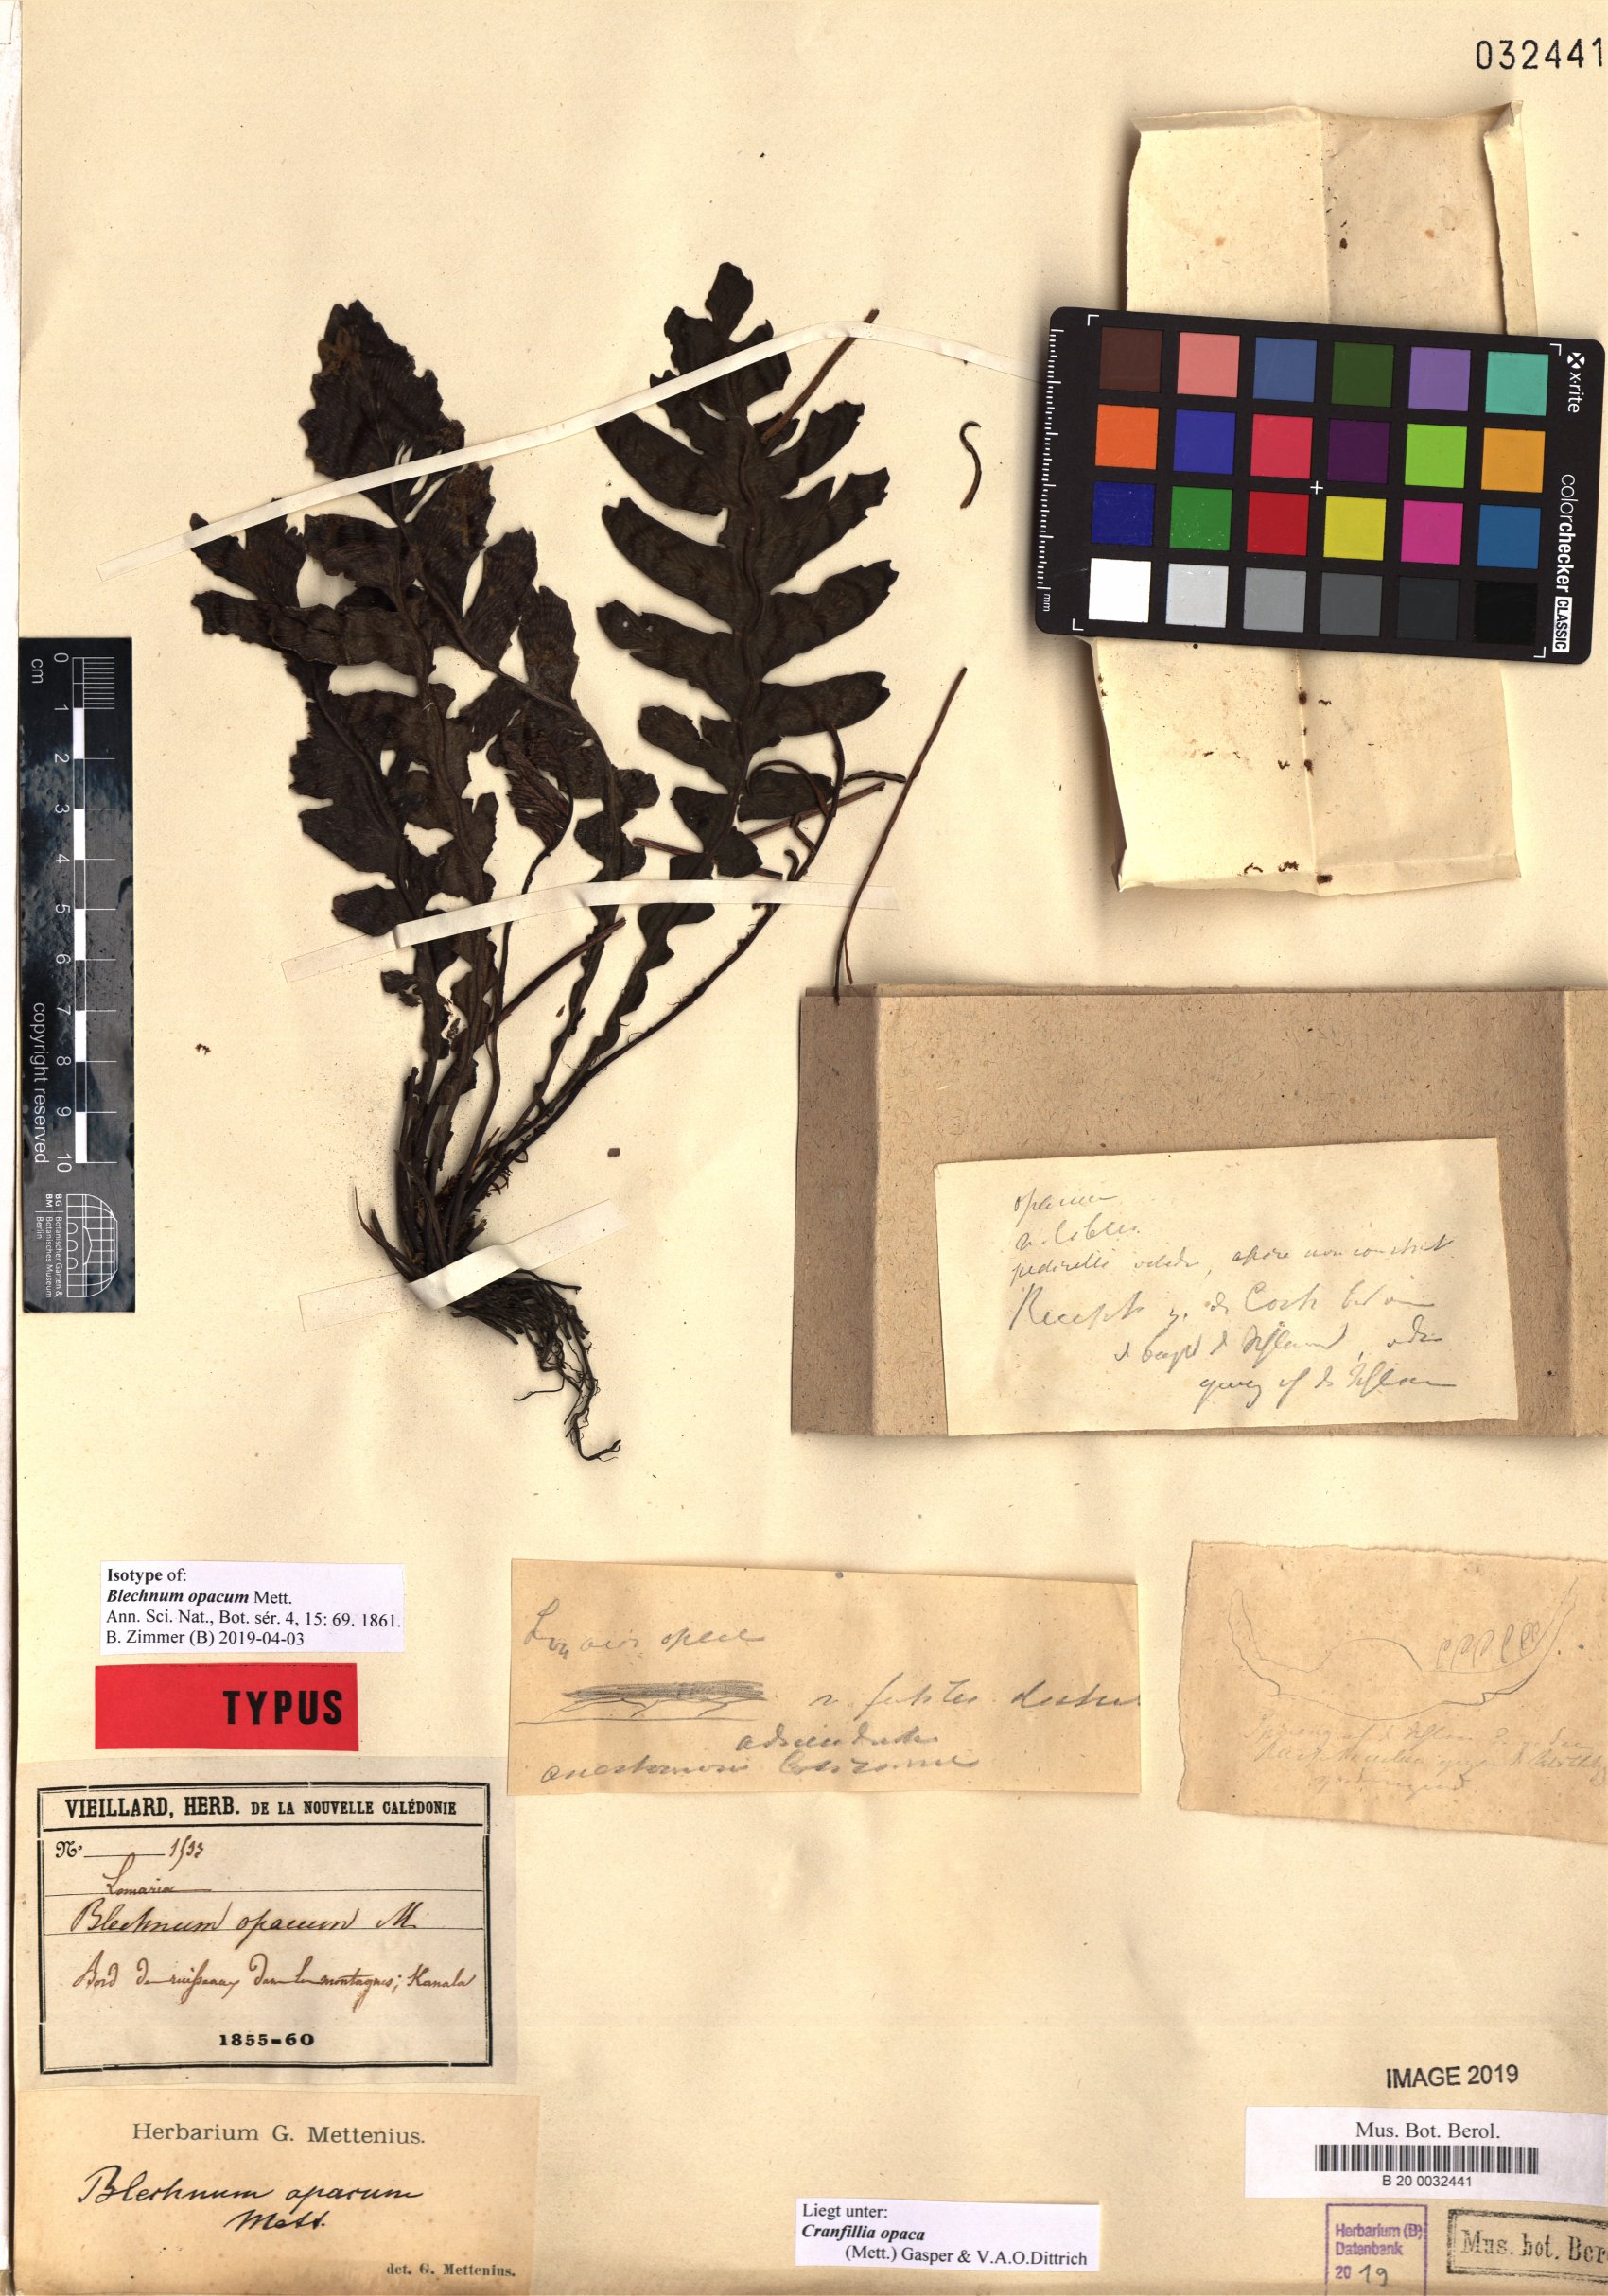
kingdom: Plantae
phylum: Tracheophyta
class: Polypodiopsida
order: Polypodiales
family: Blechnaceae
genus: Cranfillia
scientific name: Cranfillia opaca
